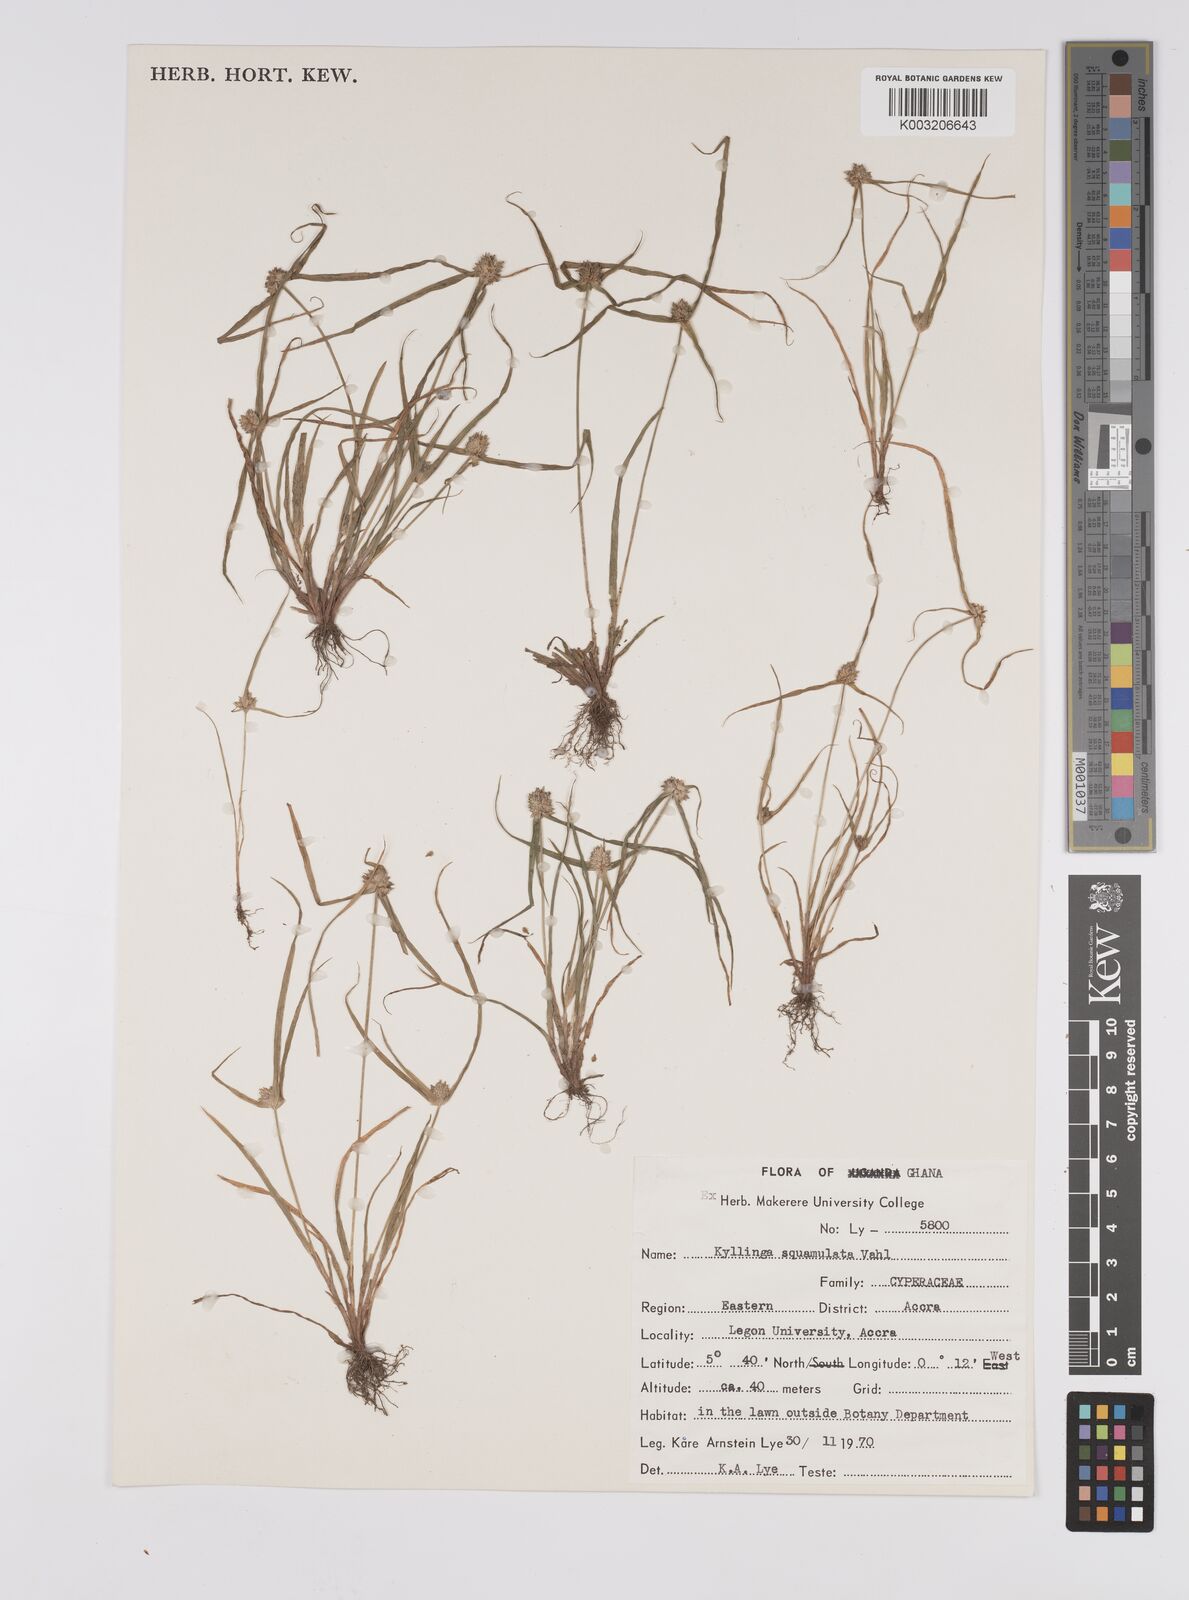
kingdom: Plantae
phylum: Tracheophyta
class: Liliopsida
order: Poales
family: Cyperaceae
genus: Cyperus
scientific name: Cyperus distans
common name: Slender cyperus
